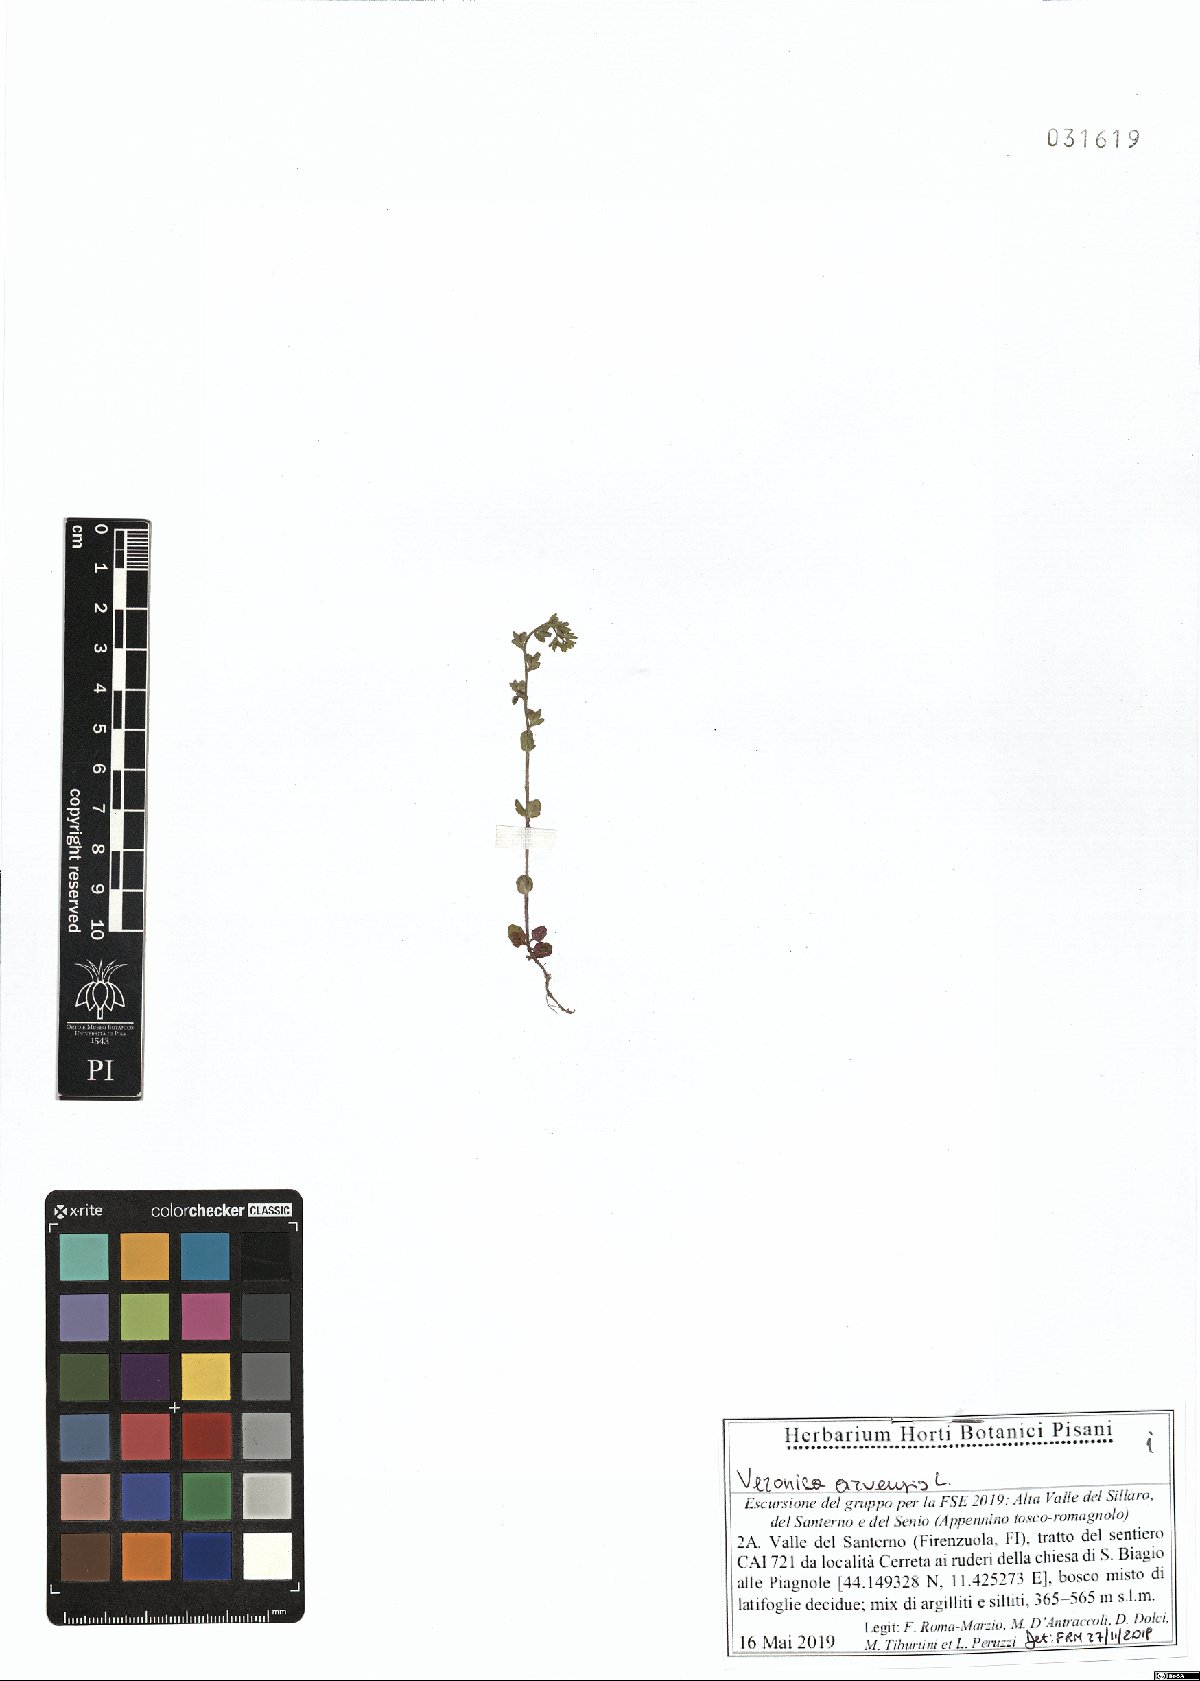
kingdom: Plantae
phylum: Tracheophyta
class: Magnoliopsida
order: Lamiales
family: Plantaginaceae
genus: Veronica
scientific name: Veronica arvensis
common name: Corn speedwell
